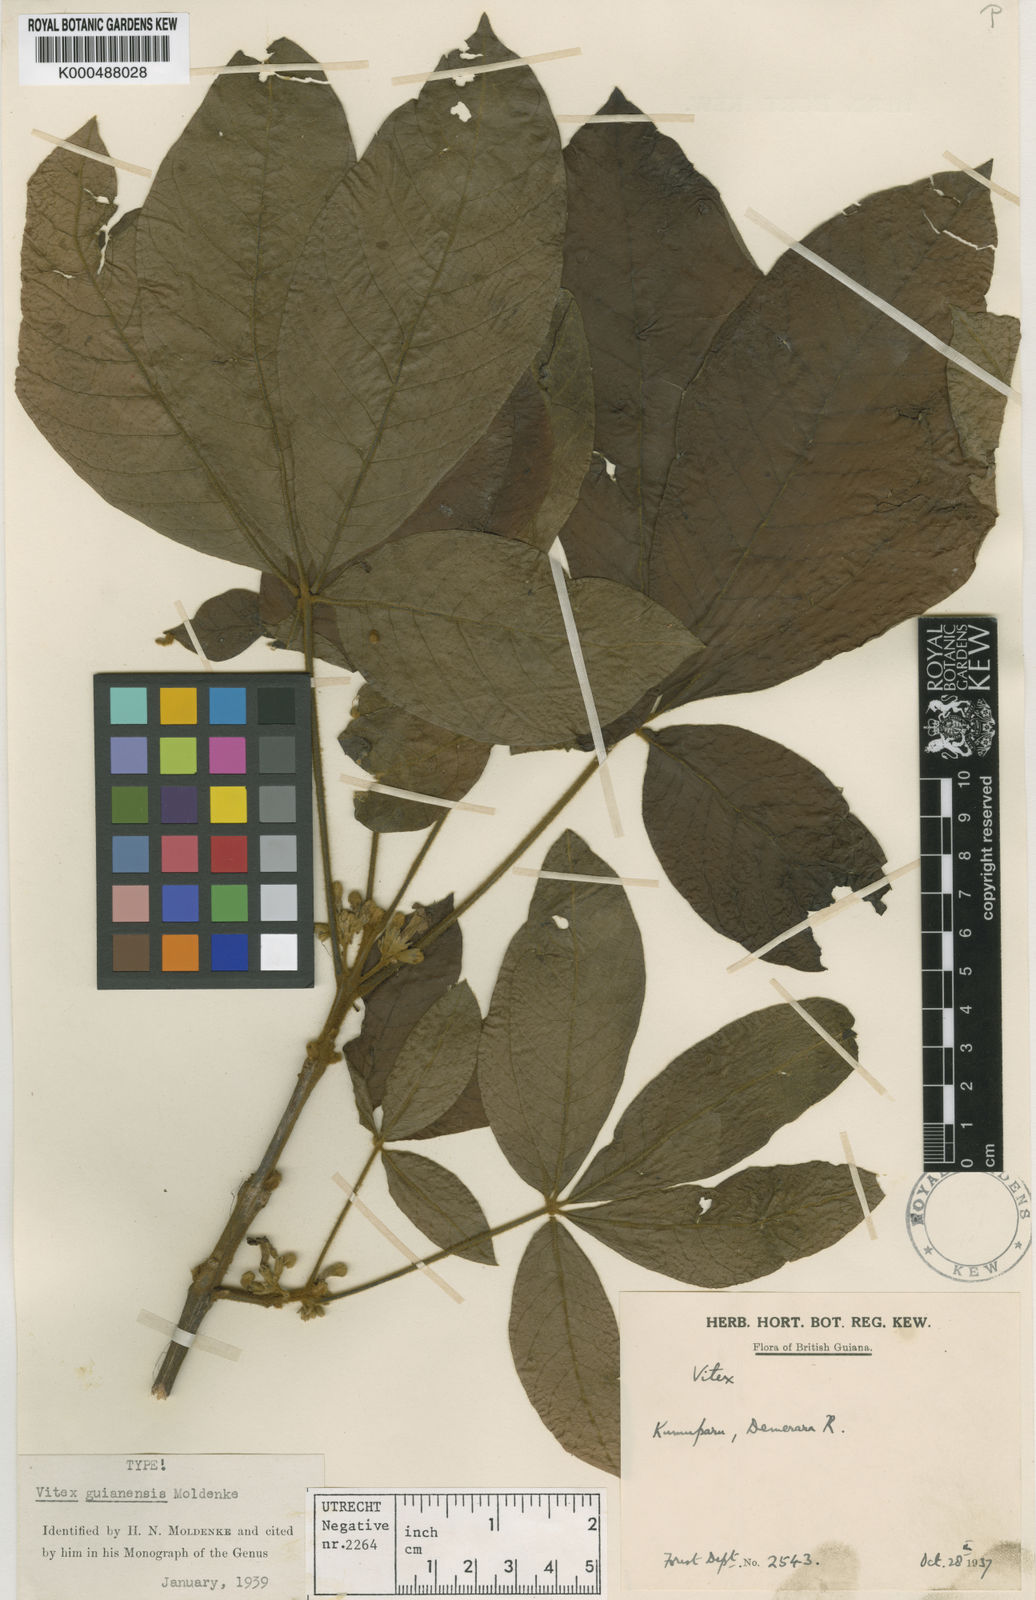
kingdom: Plantae
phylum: Tracheophyta
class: Magnoliopsida
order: Lamiales
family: Lamiaceae
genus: Vitex
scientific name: Vitex guianensis
